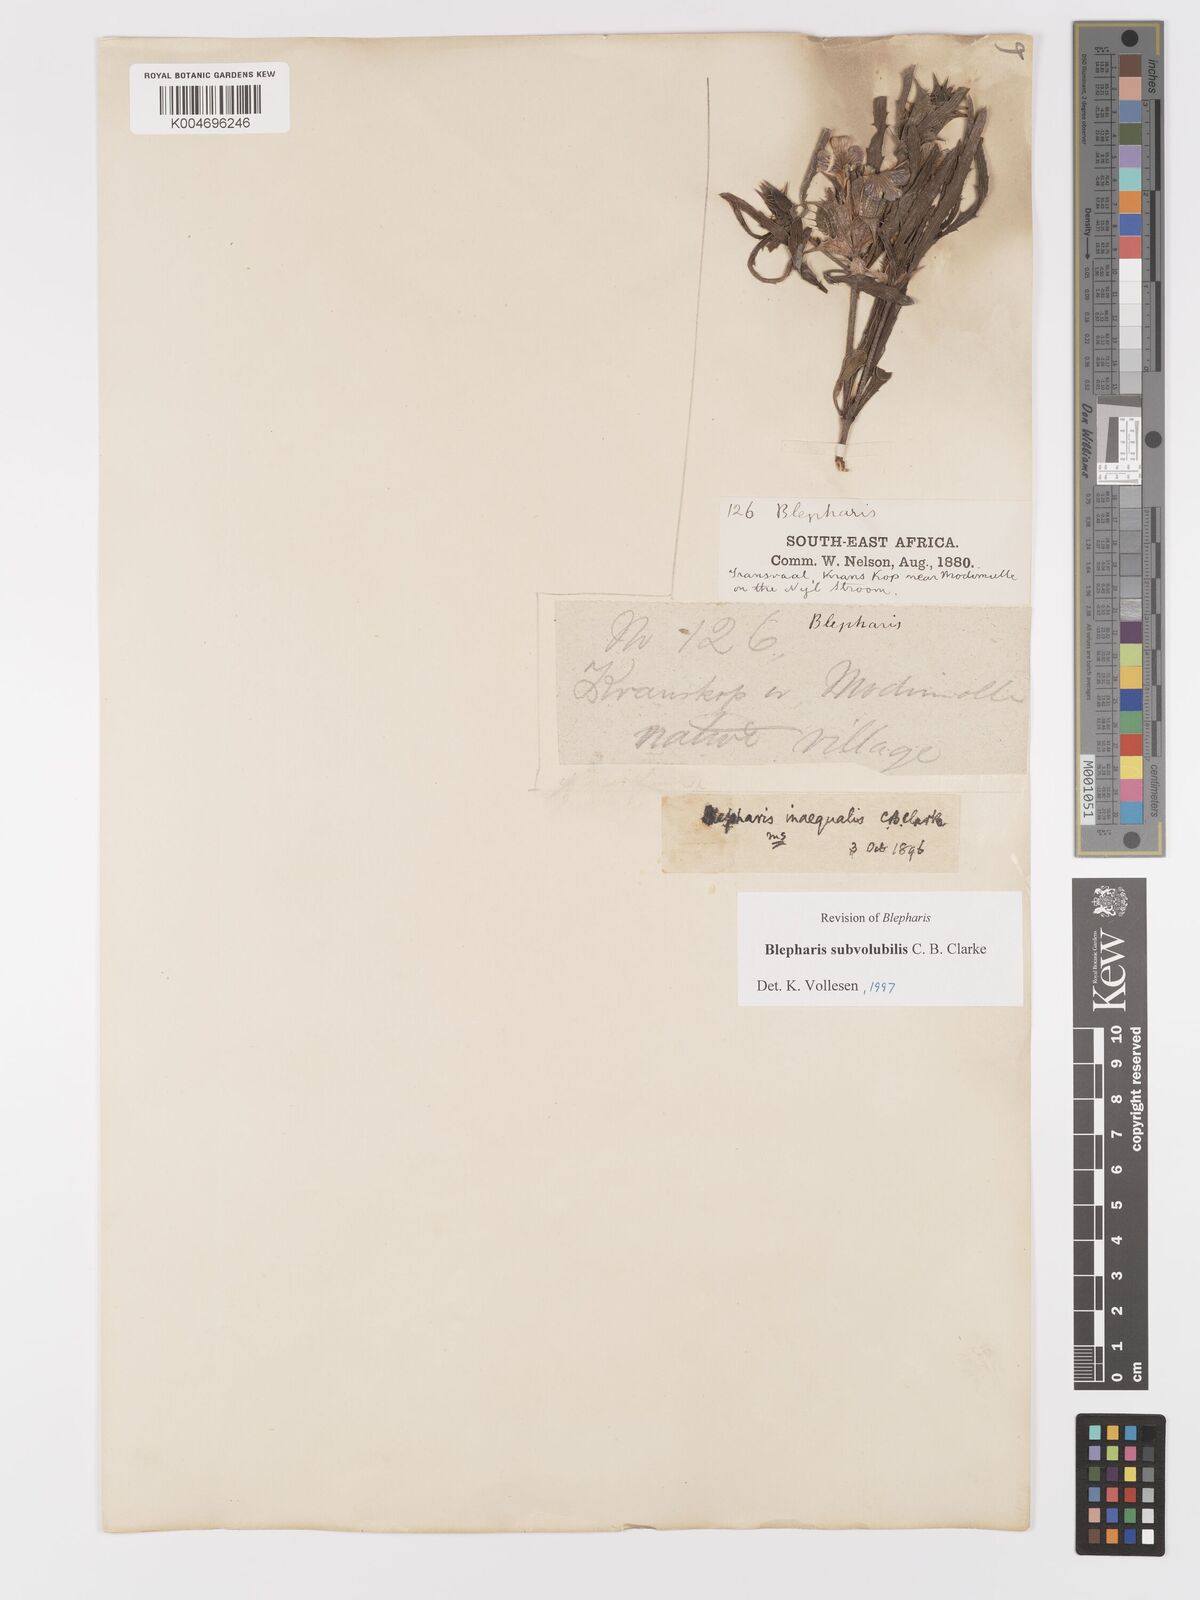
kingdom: Plantae
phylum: Tracheophyta
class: Magnoliopsida
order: Lamiales
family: Acanthaceae
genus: Blepharis
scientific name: Blepharis subvolubilis
